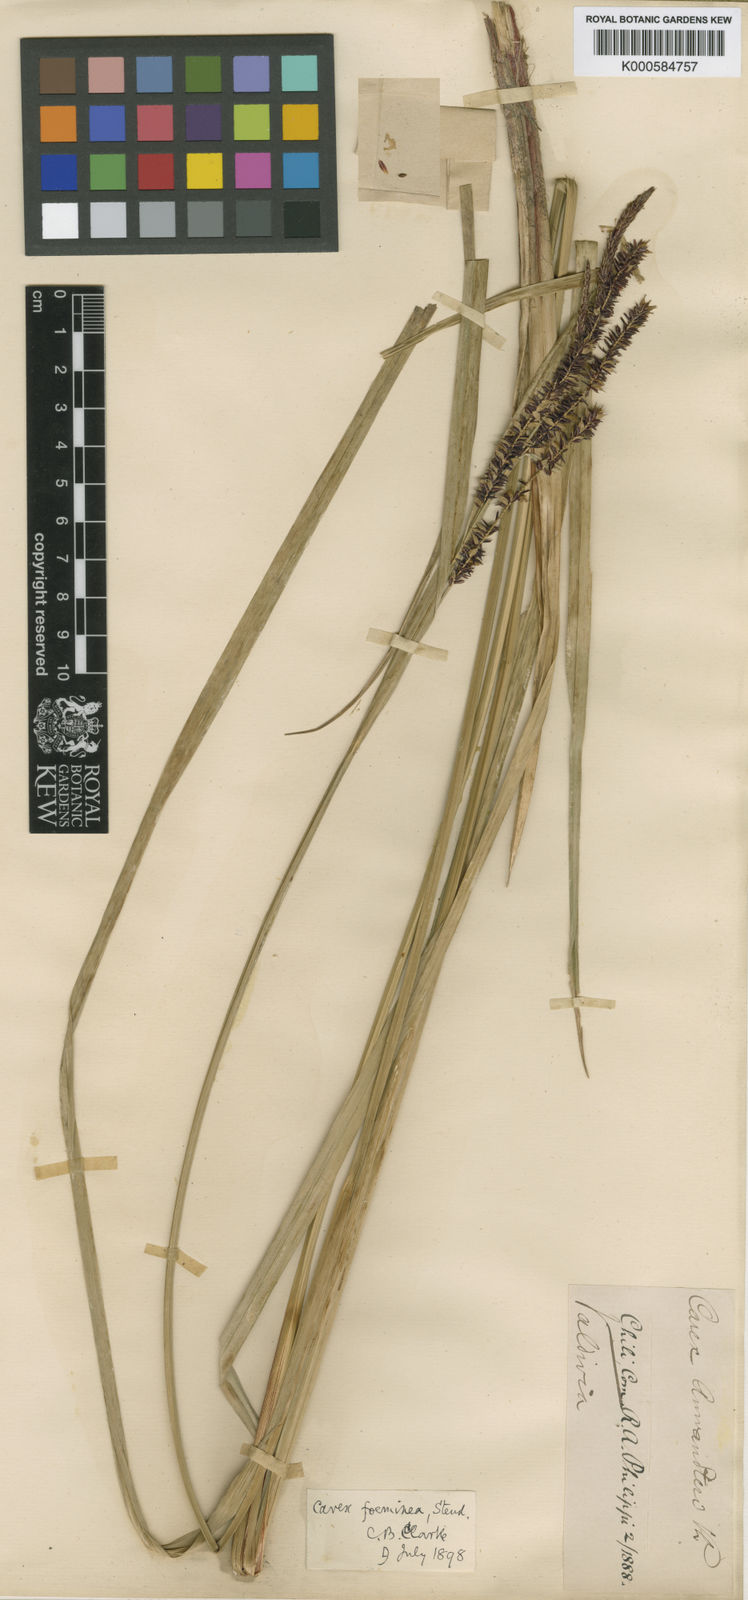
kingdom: Plantae
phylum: Tracheophyta
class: Liliopsida
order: Poales
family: Cyperaceae
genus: Carex
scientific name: Carex acutata
